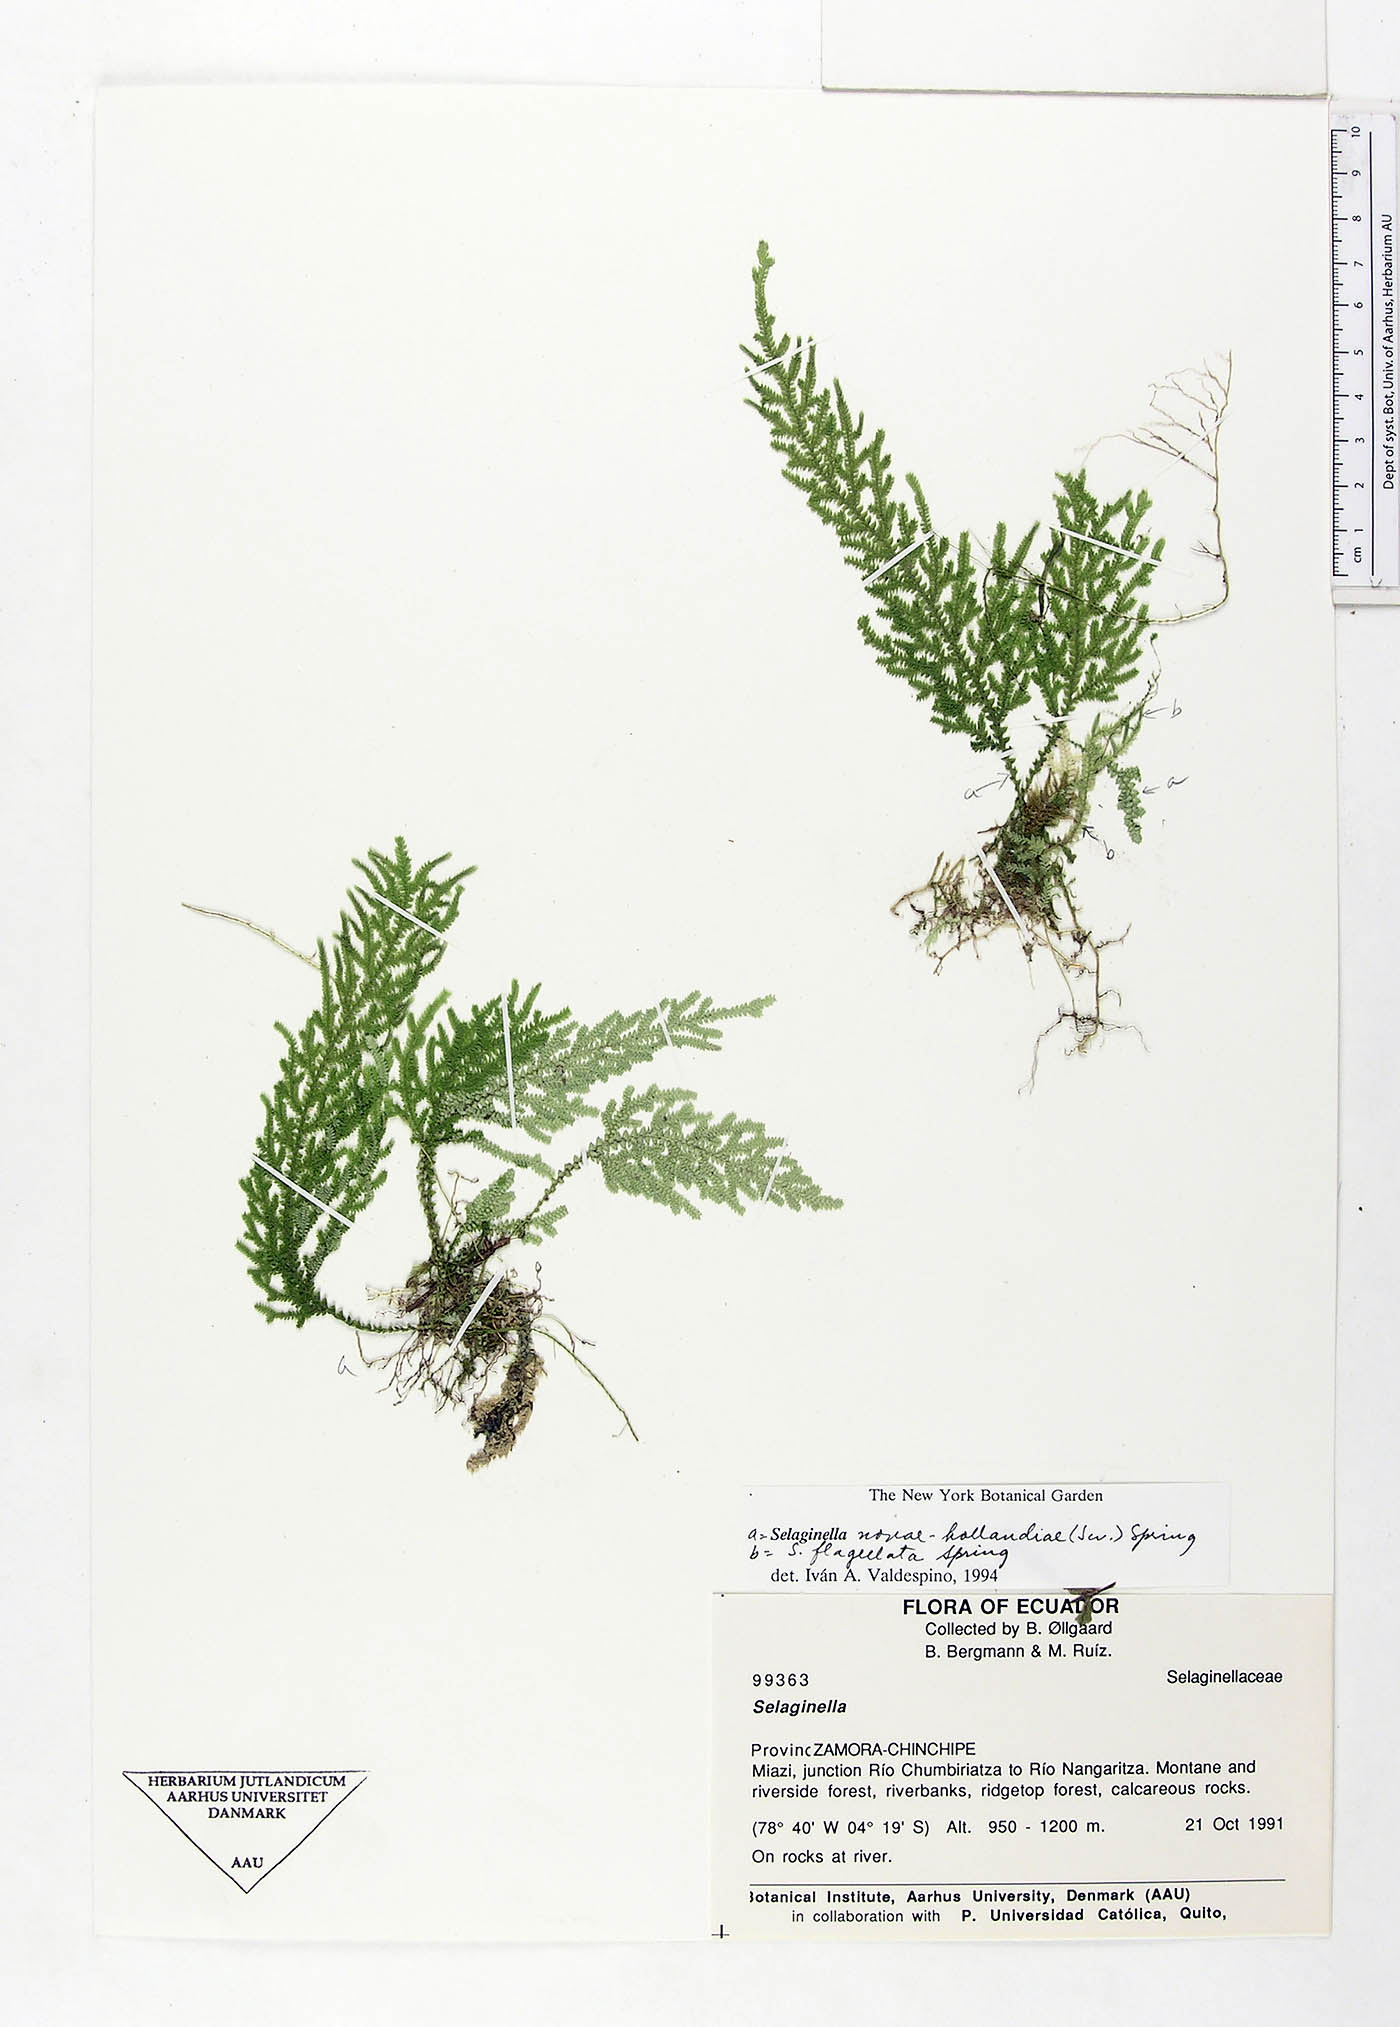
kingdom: Plantae
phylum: Tracheophyta
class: Lycopodiopsida
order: Selaginellales
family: Selaginellaceae
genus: Selaginella
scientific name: Selaginella novae-hollandiae
